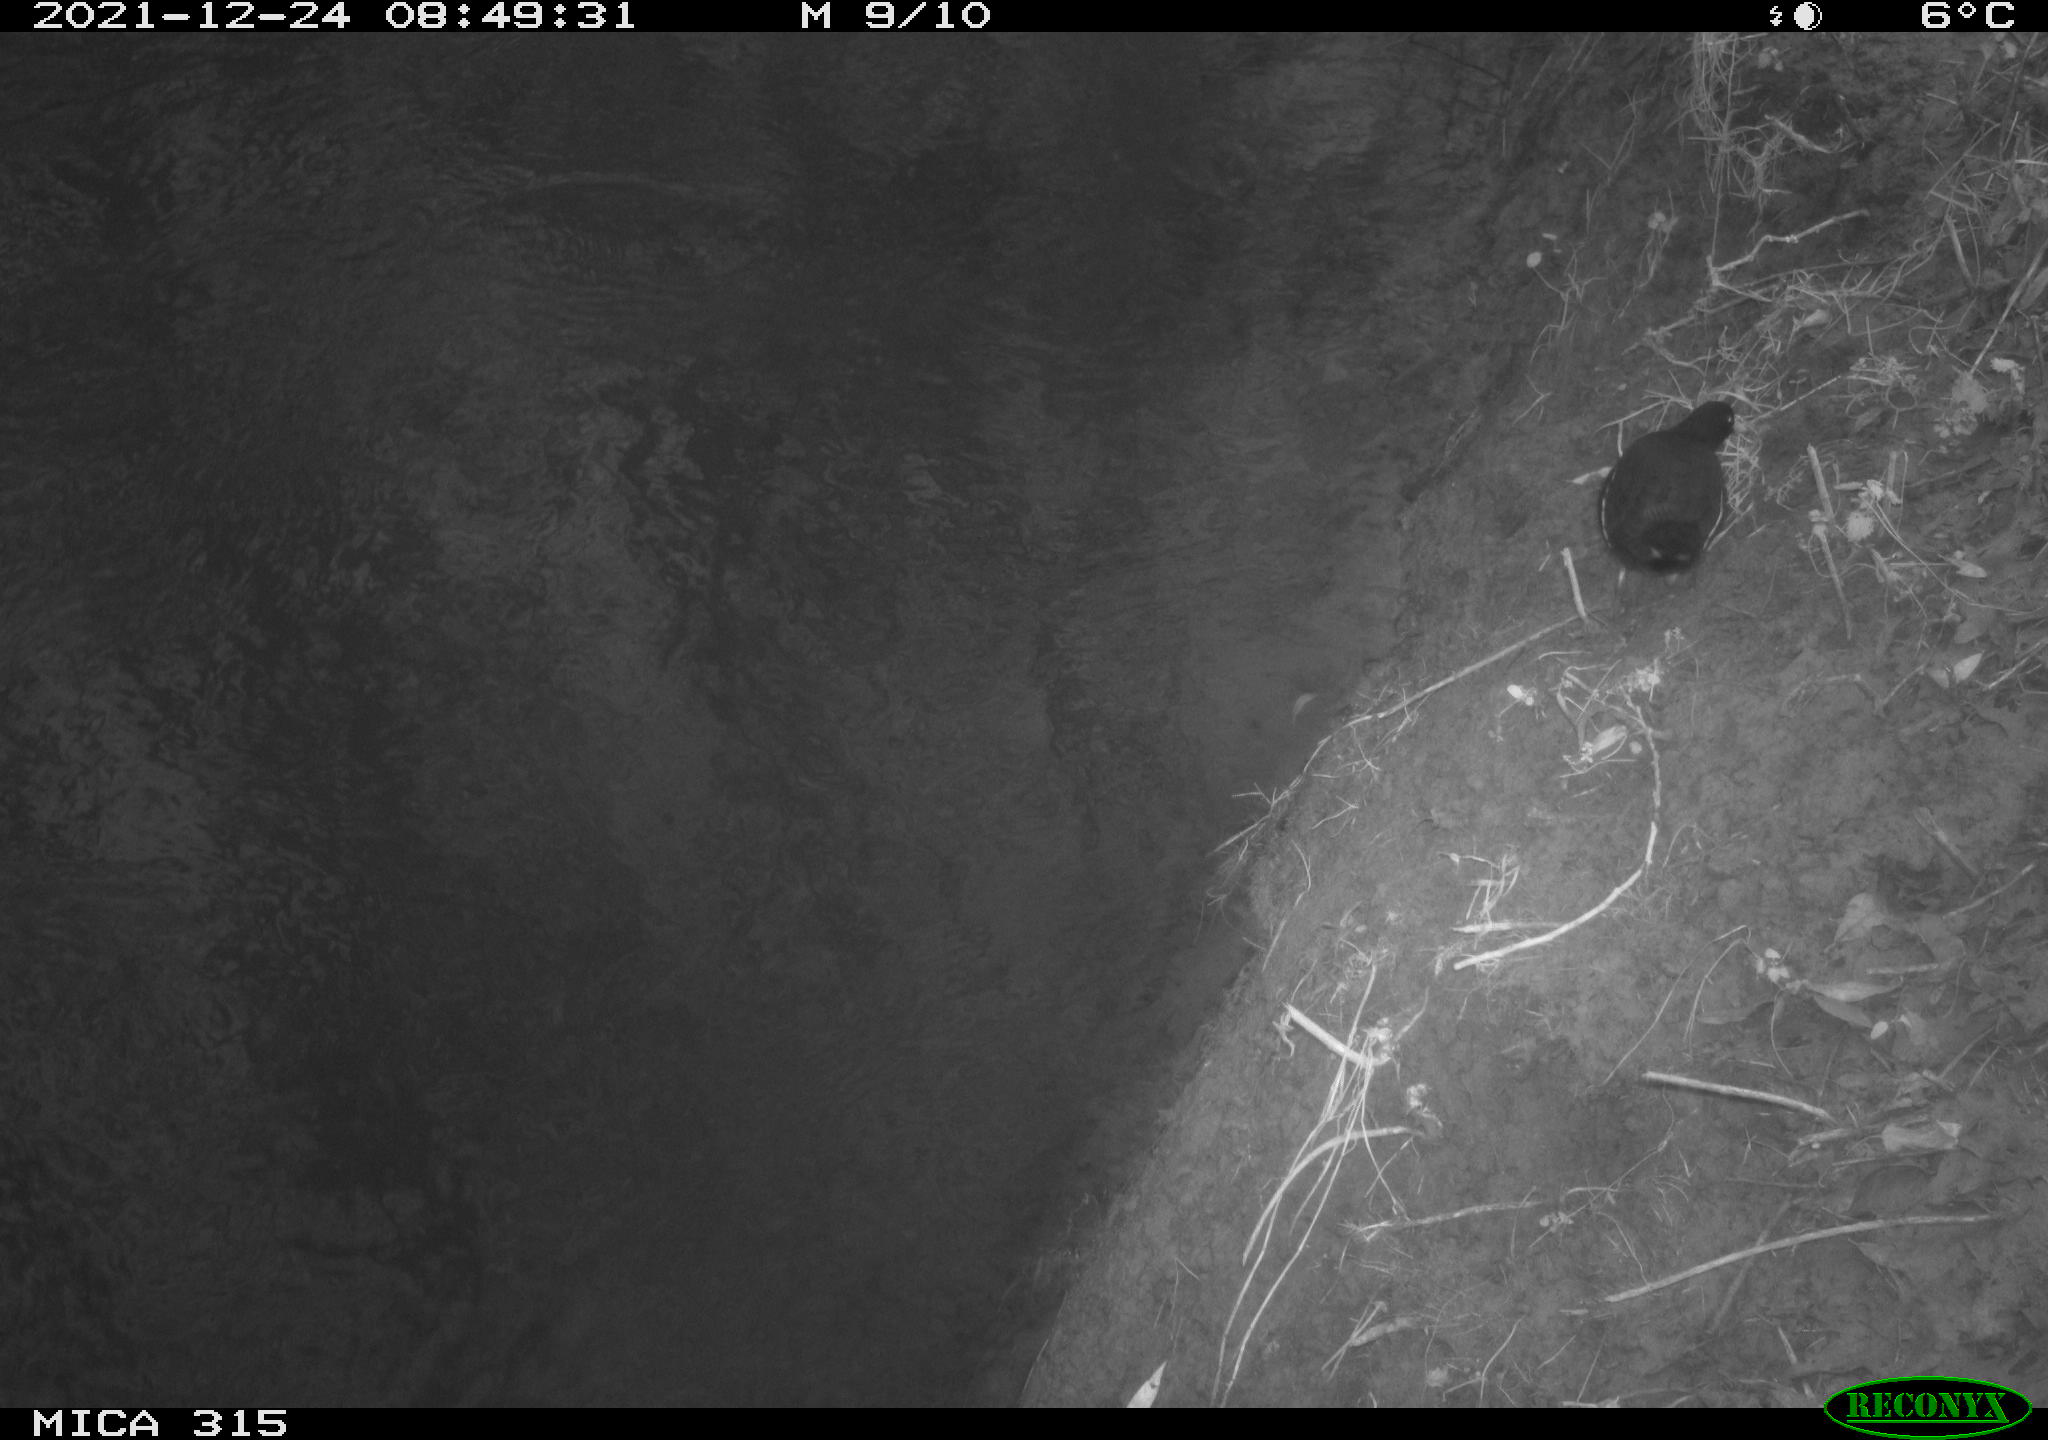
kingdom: Animalia
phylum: Chordata
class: Aves
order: Gruiformes
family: Rallidae
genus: Gallinula
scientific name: Gallinula chloropus
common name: Common moorhen
